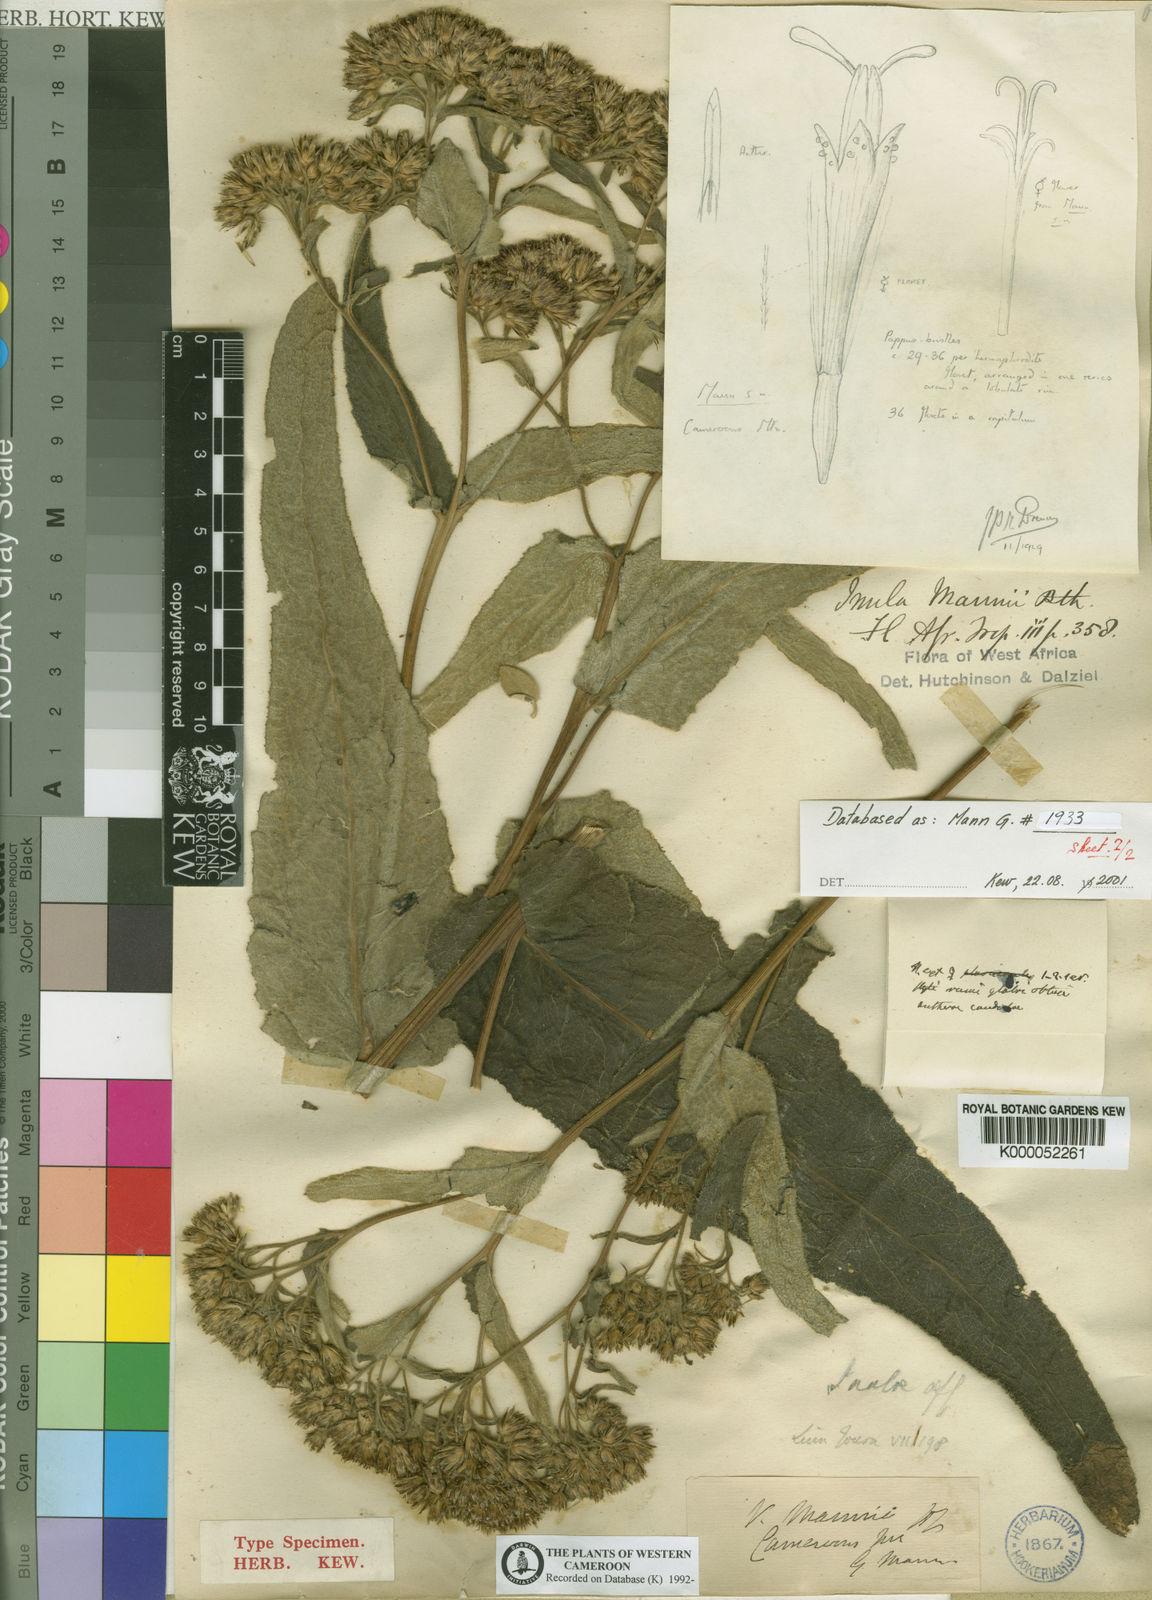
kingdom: Plantae
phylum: Tracheophyta
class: Magnoliopsida
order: Asterales
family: Asteraceae
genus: Inula
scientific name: Inula mannii
